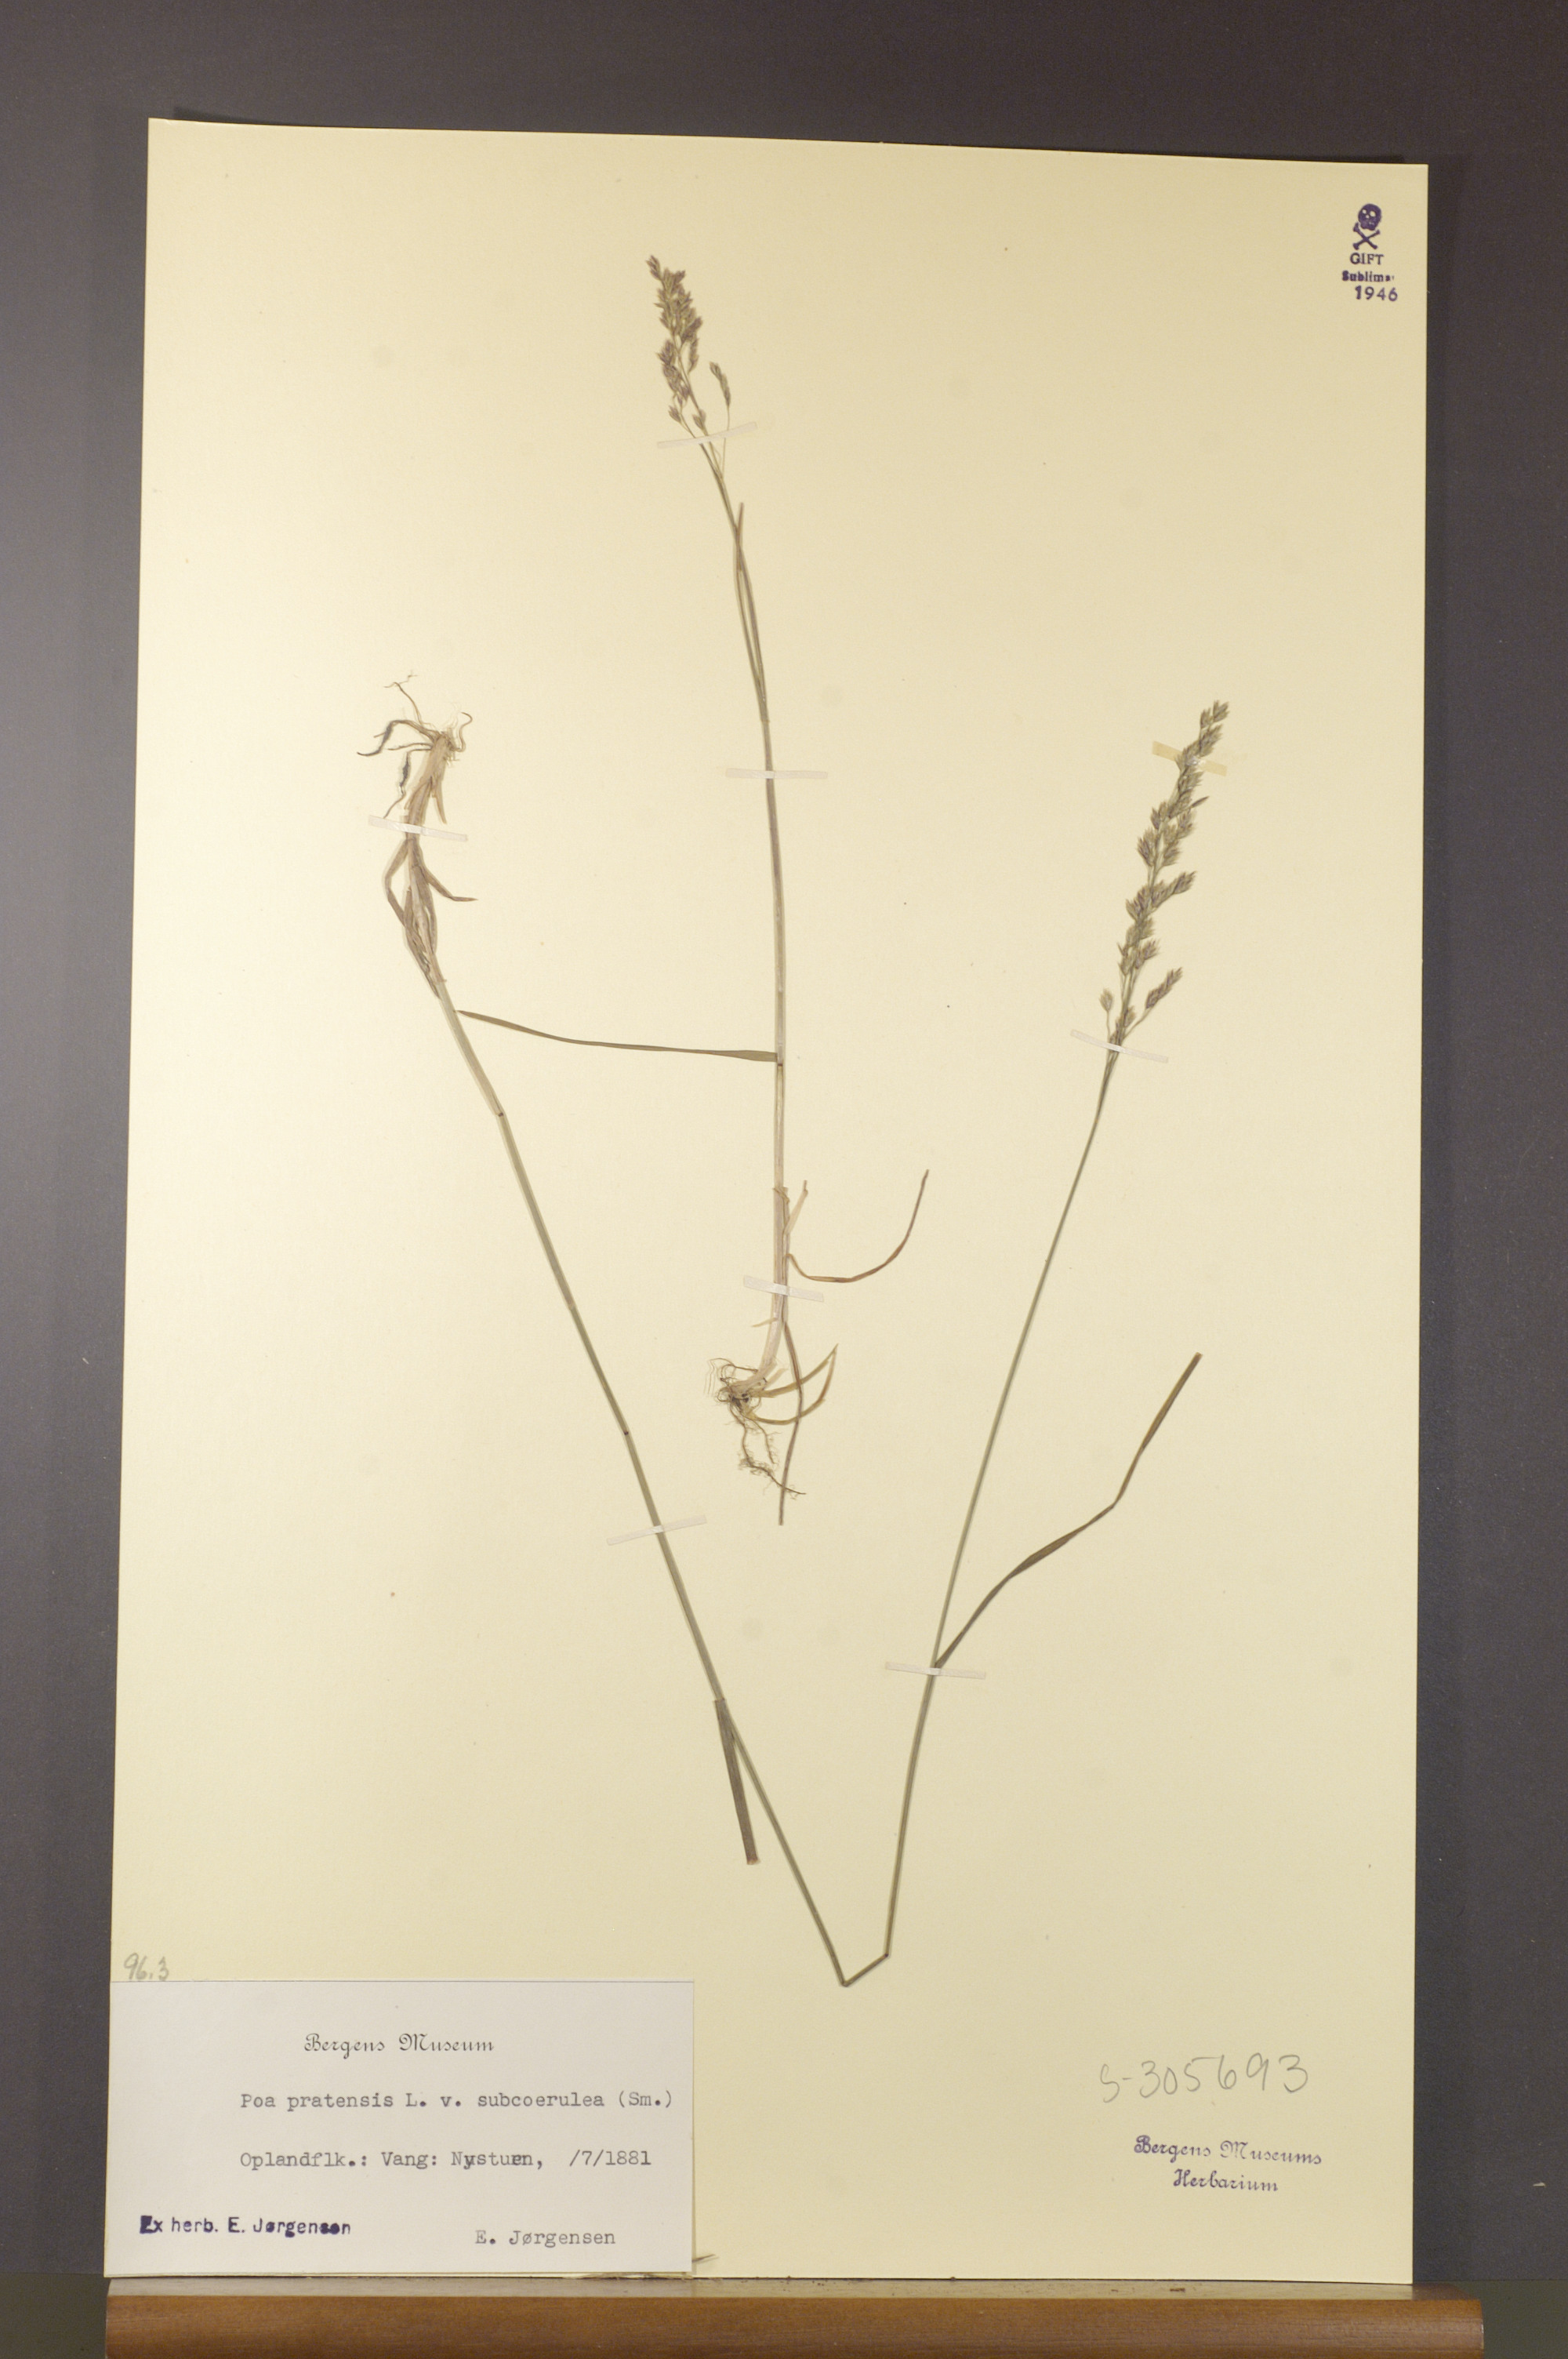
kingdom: Plantae
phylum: Tracheophyta
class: Liliopsida
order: Poales
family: Poaceae
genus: Poa
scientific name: Poa humilis
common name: Spreading meadow-grass
